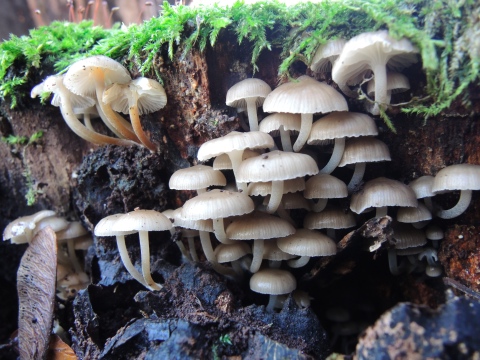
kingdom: Fungi
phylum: Basidiomycota
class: Agaricomycetes
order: Agaricales
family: Mycenaceae
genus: Mycena
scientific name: Mycena tintinnabulum
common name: vinter-huesvamp
